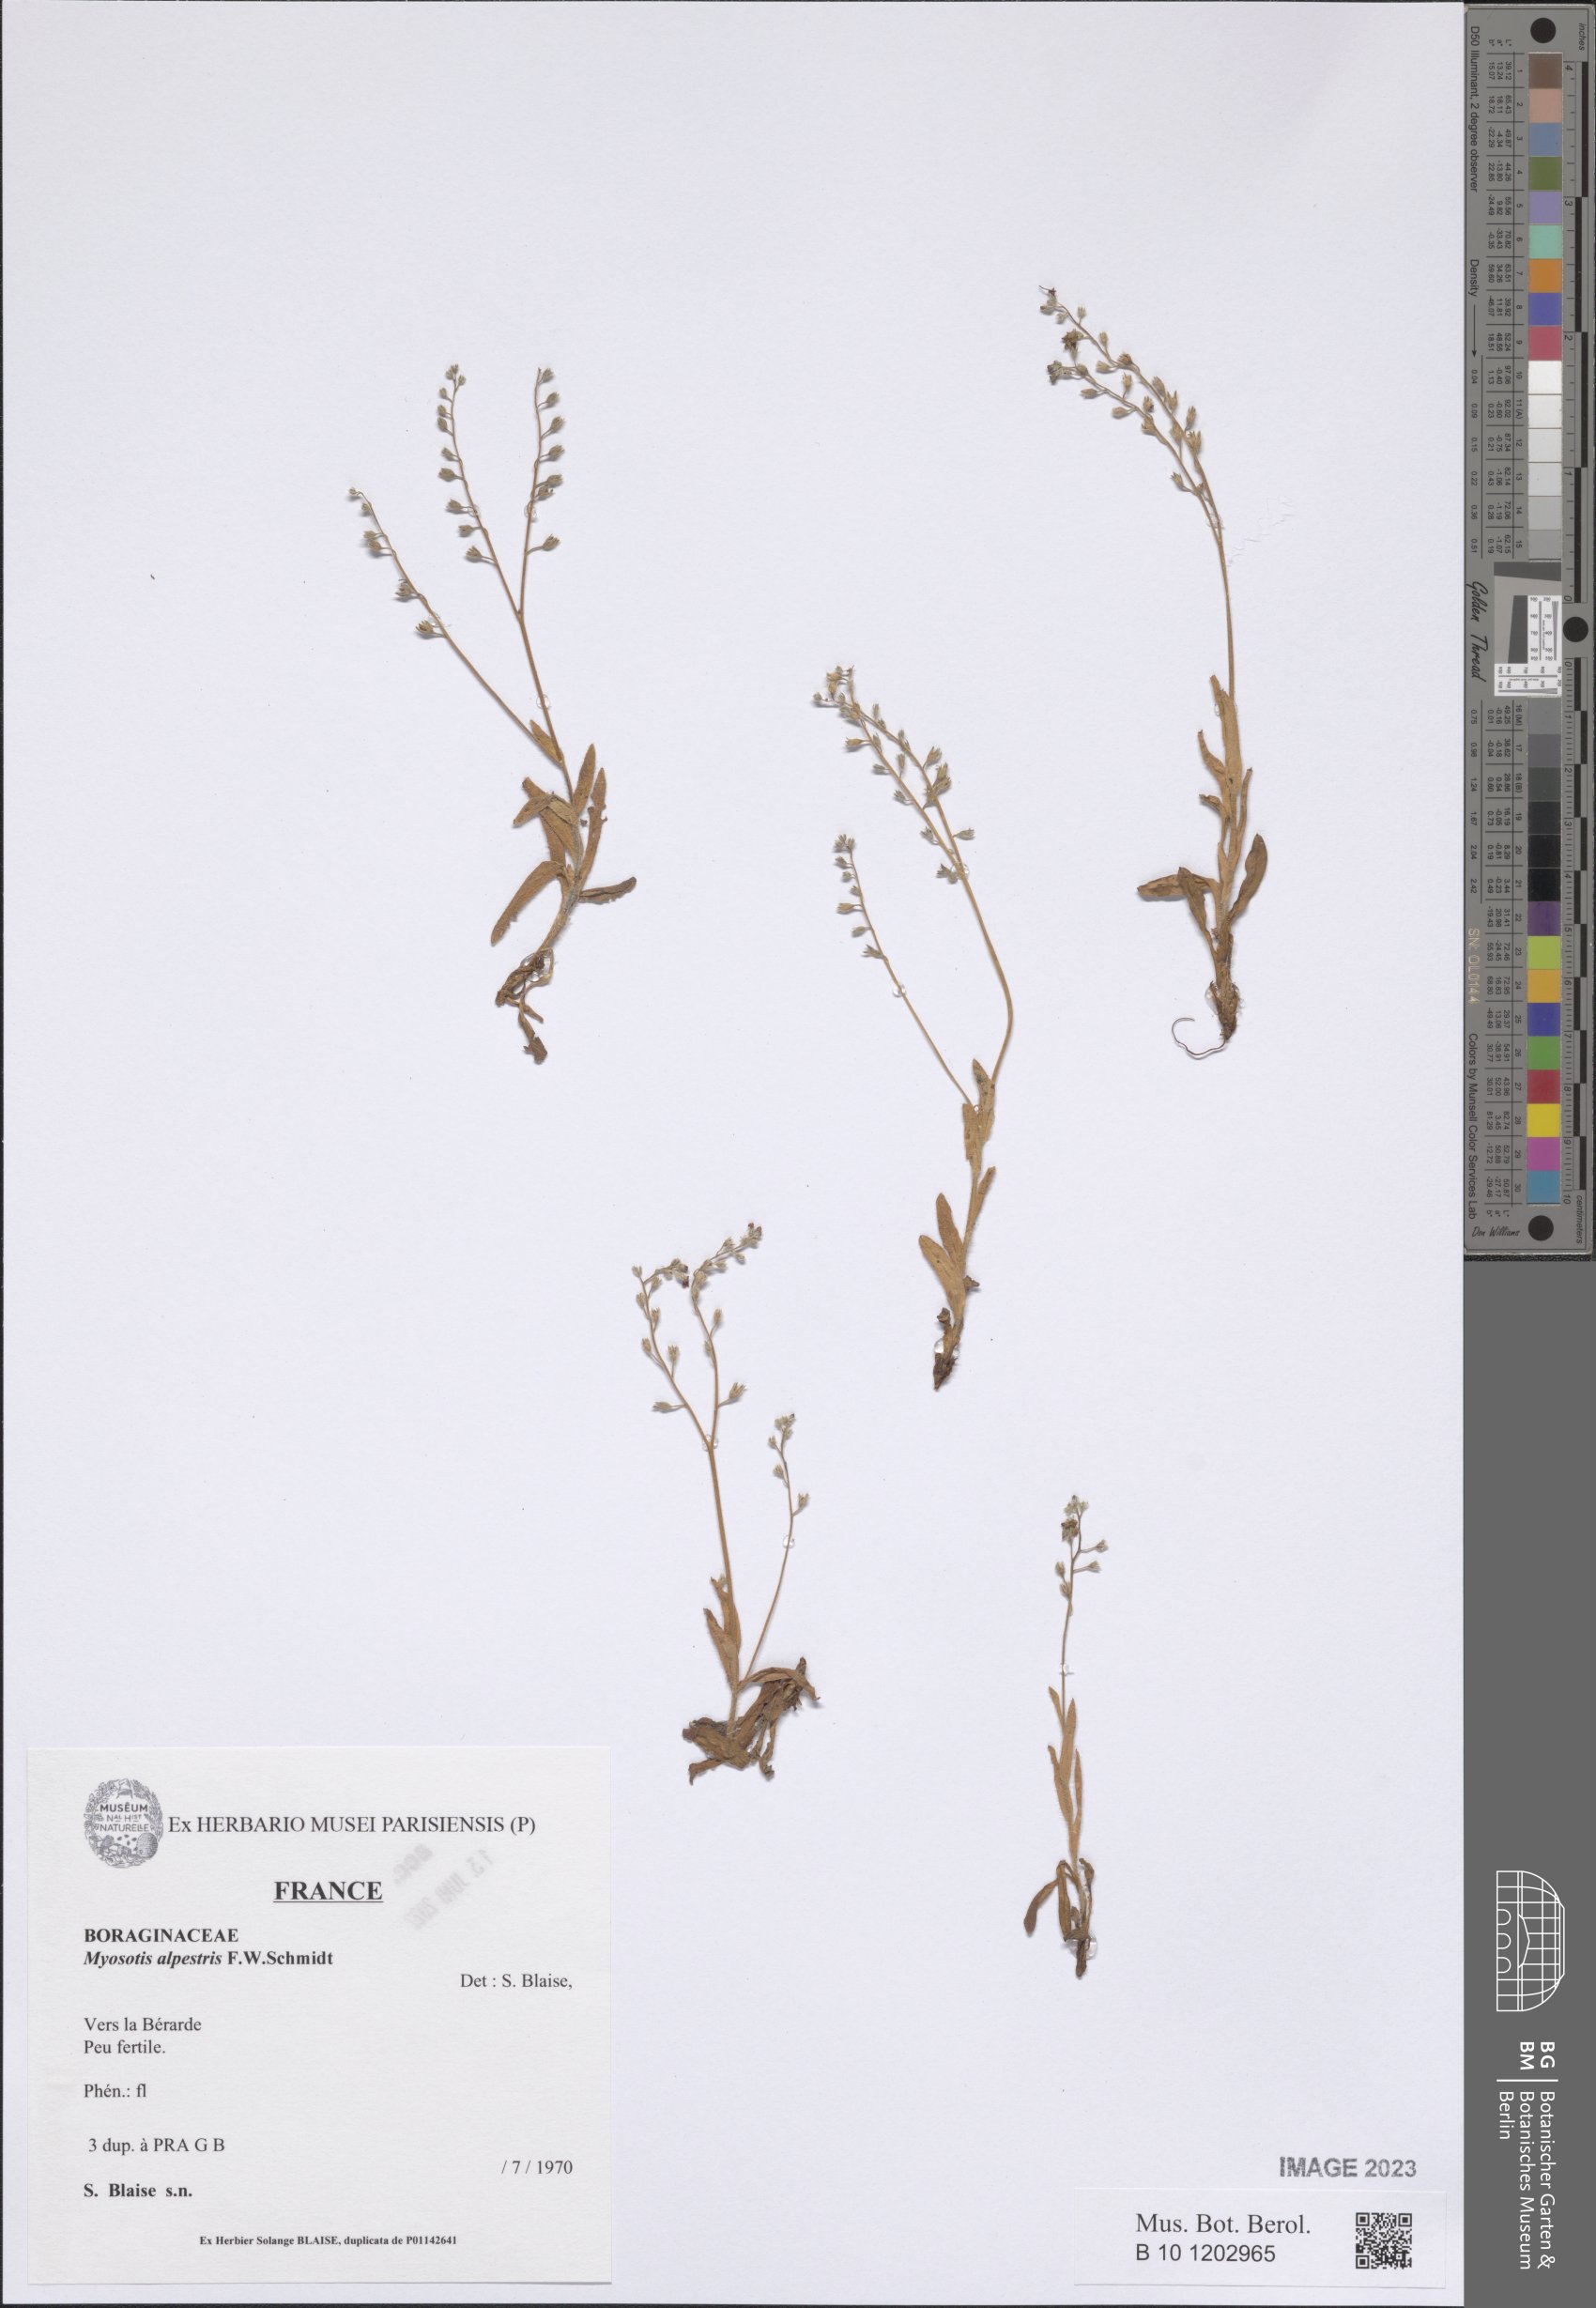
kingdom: Plantae
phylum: Tracheophyta
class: Magnoliopsida
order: Boraginales
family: Boraginaceae
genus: Myosotis
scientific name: Myosotis alpestris
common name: Alpine forget-me-not
